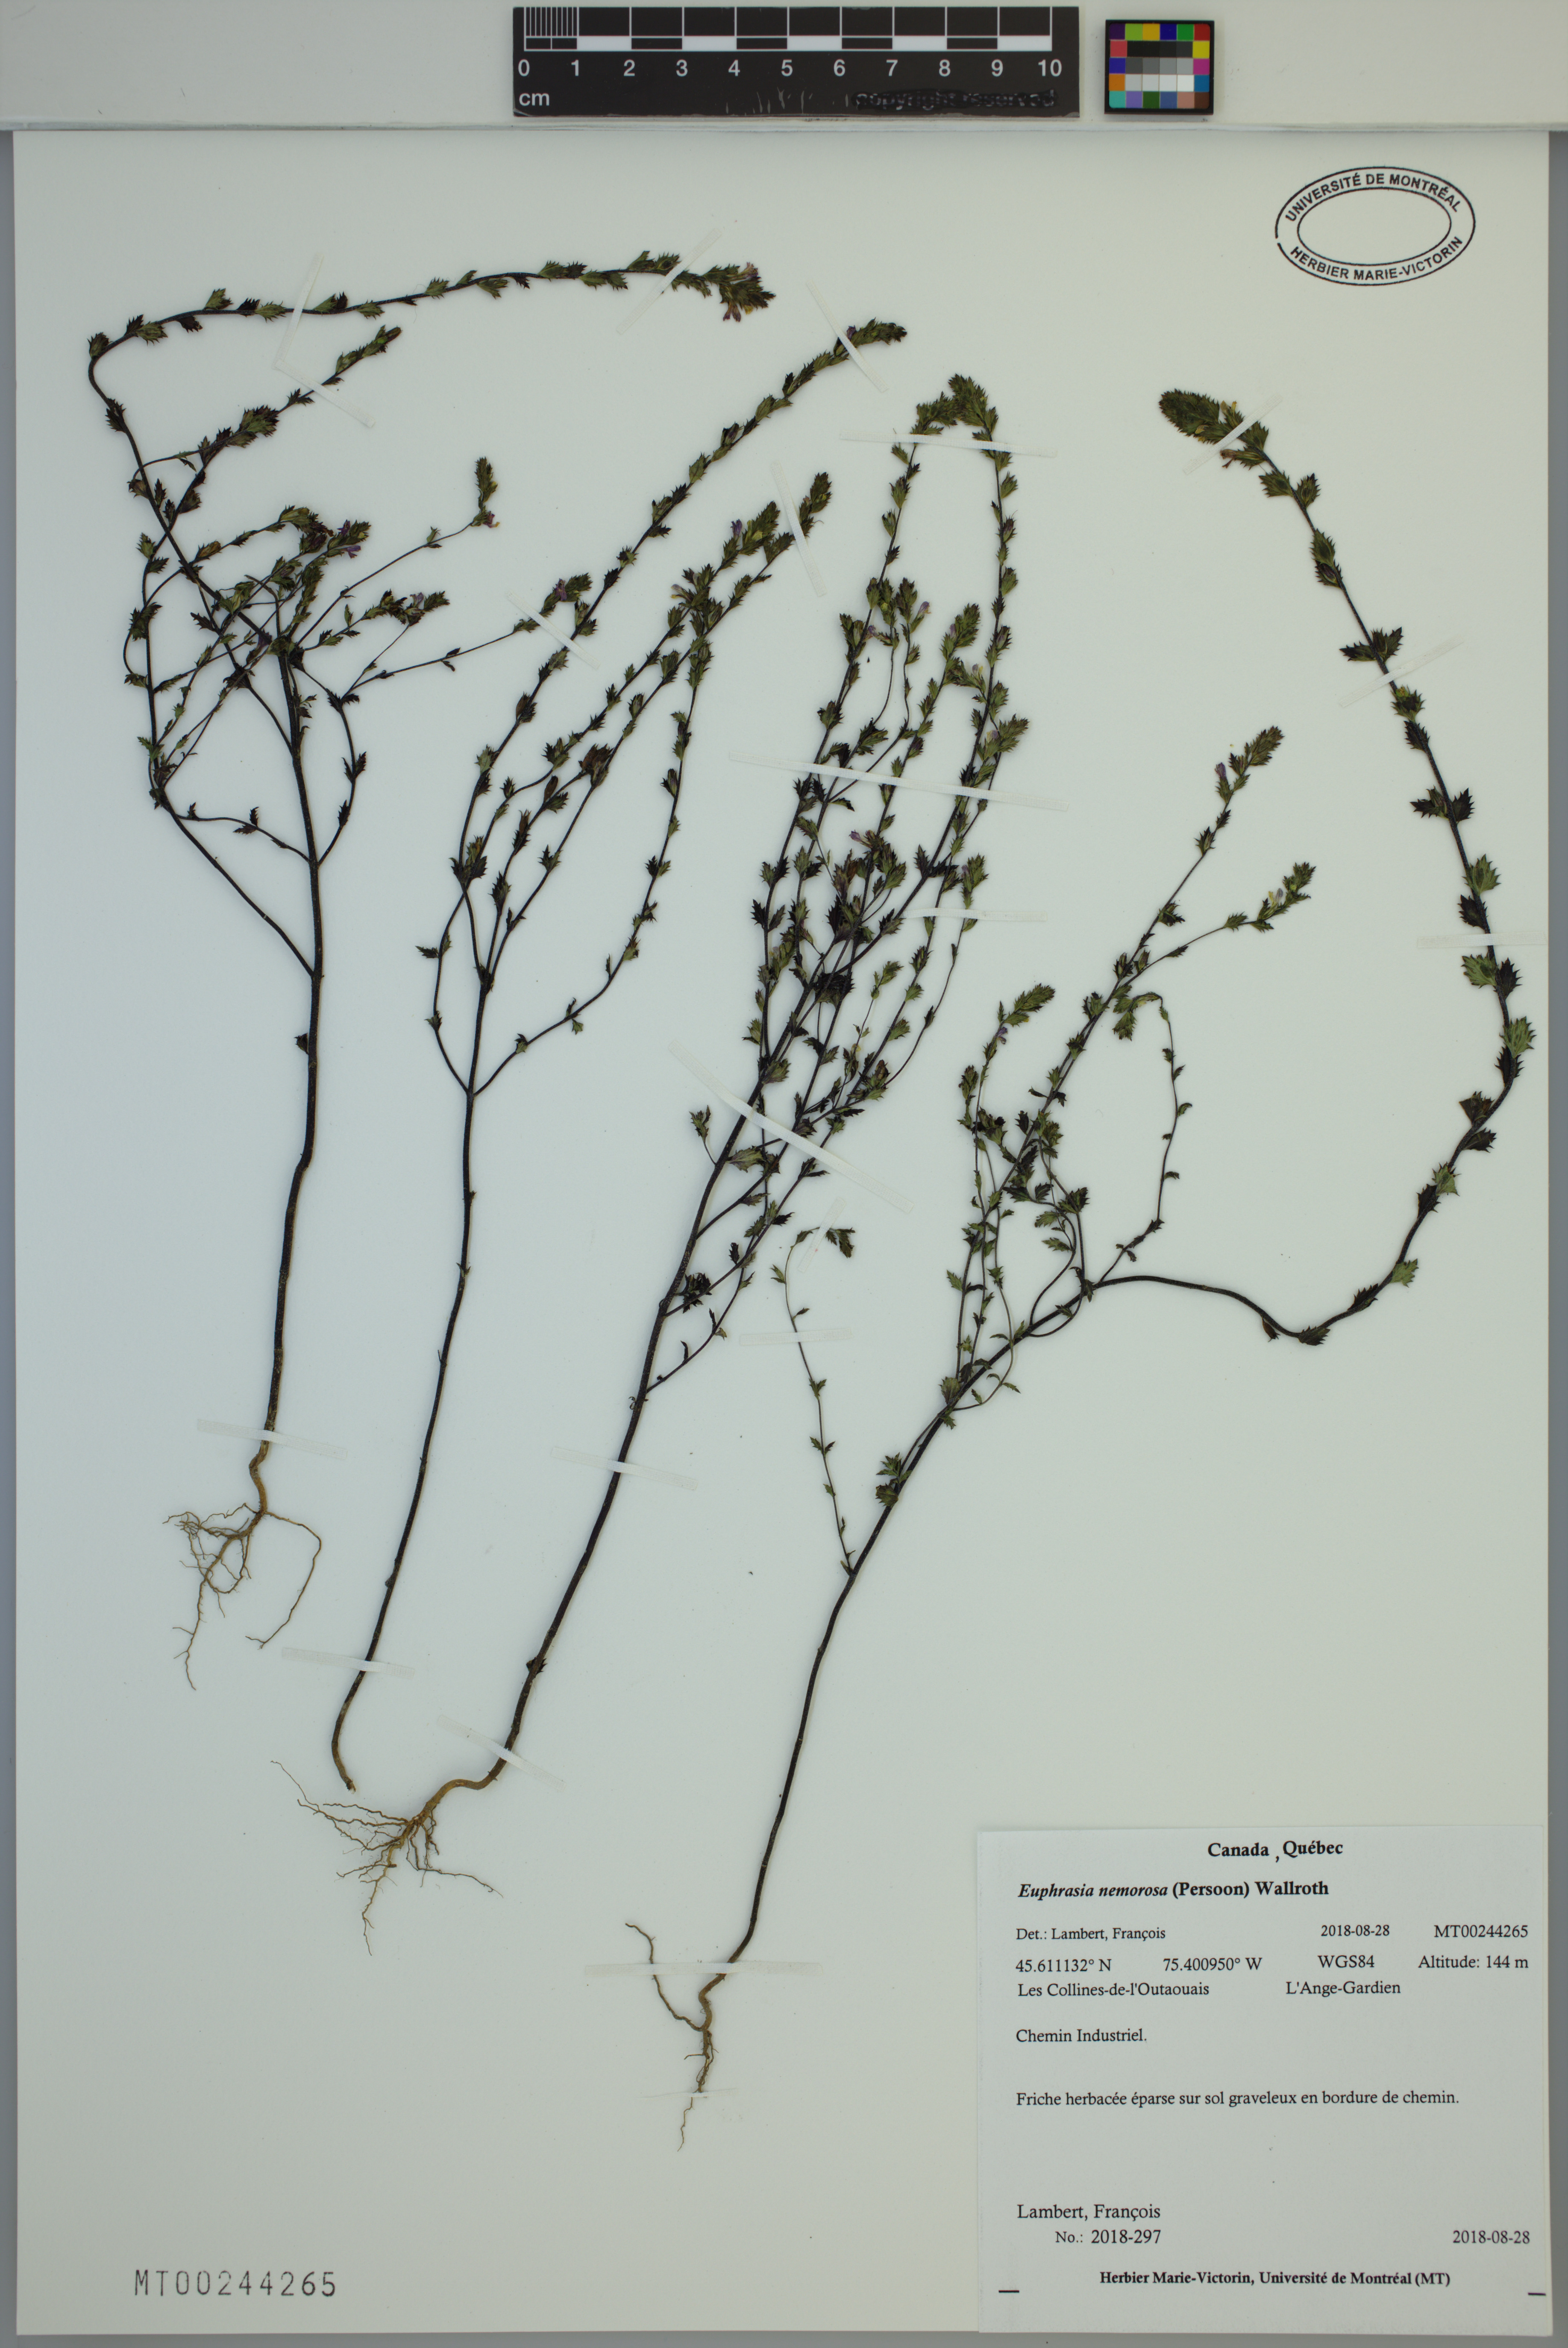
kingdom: Plantae
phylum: Tracheophyta
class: Magnoliopsida
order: Lamiales
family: Orobanchaceae
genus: Euphrasia
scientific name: Euphrasia nemorosa
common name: Common eyebright
